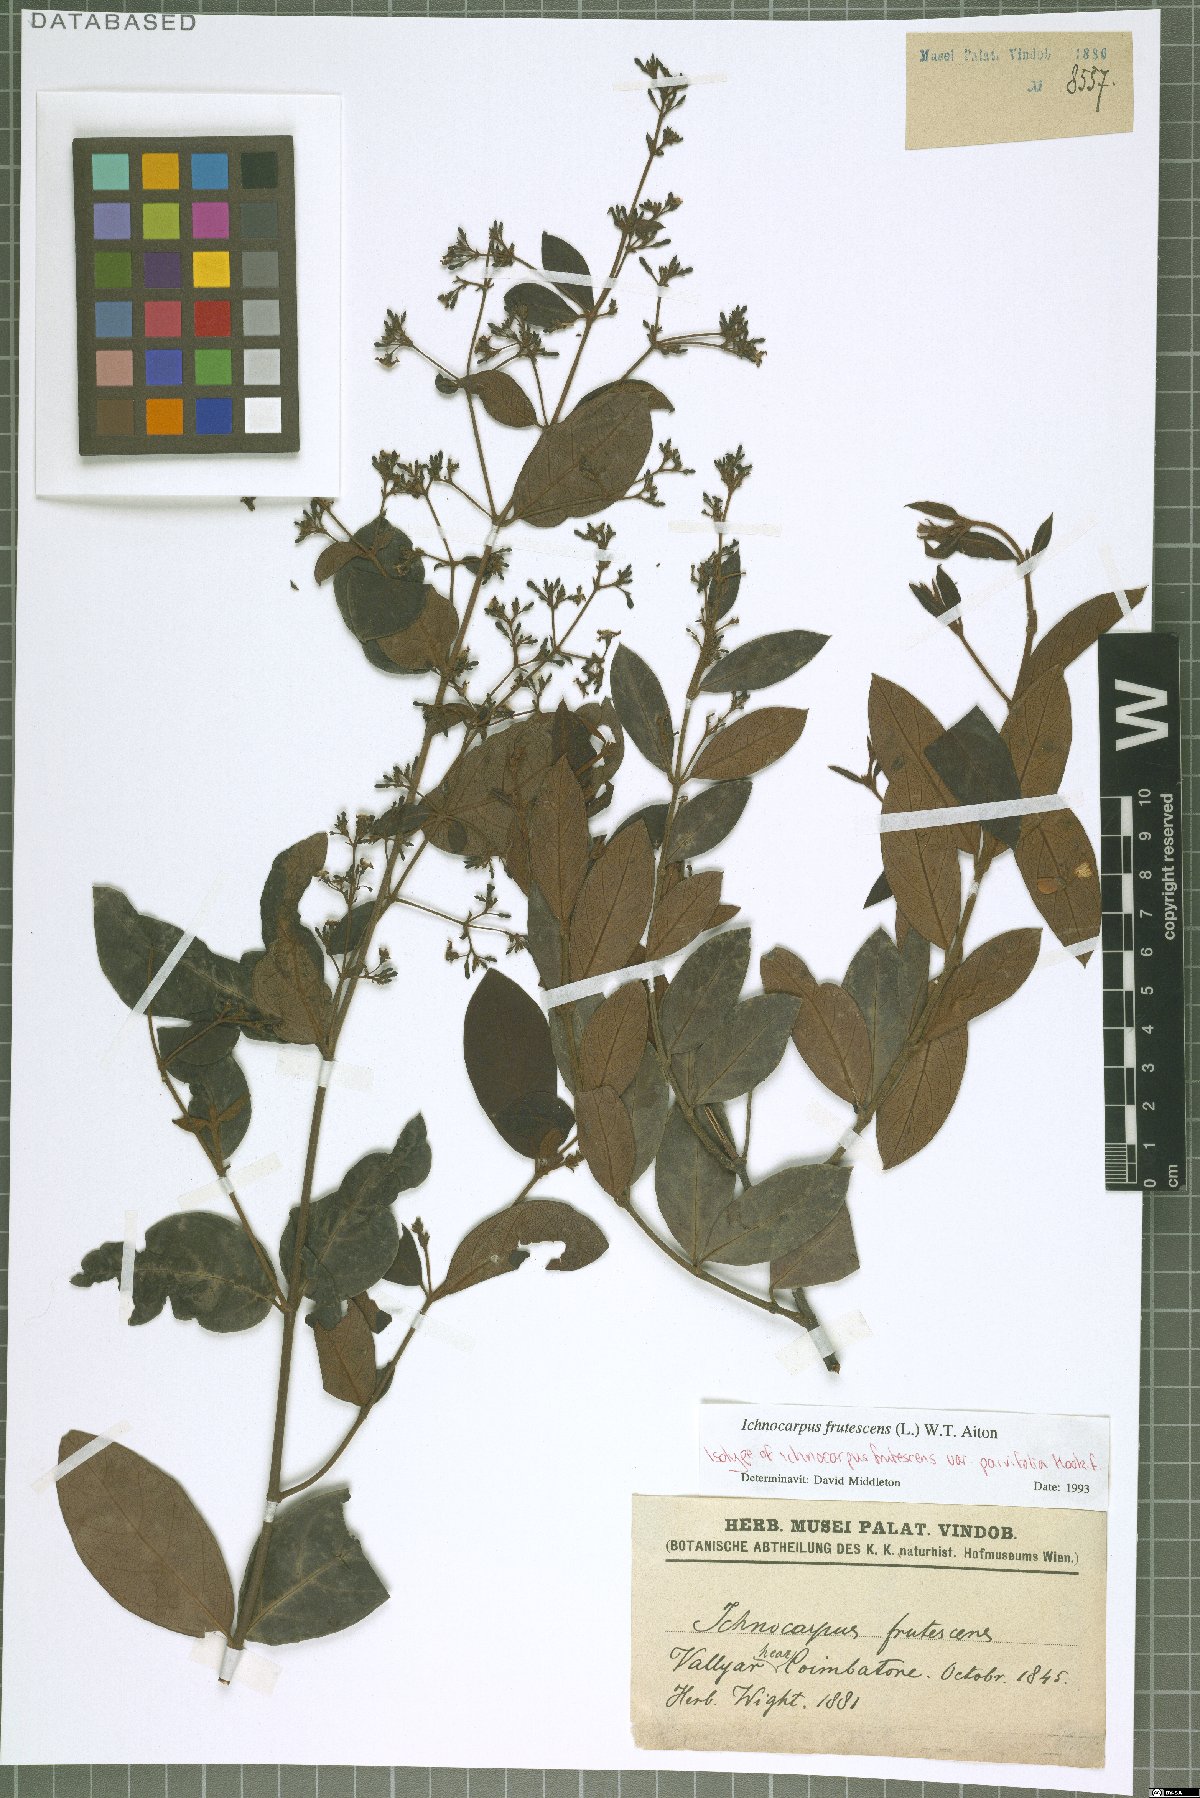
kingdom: Plantae
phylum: Tracheophyta
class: Magnoliopsida
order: Gentianales
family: Apocynaceae
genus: Ichnocarpus
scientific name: Ichnocarpus frutescens
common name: Ichnocarpus
